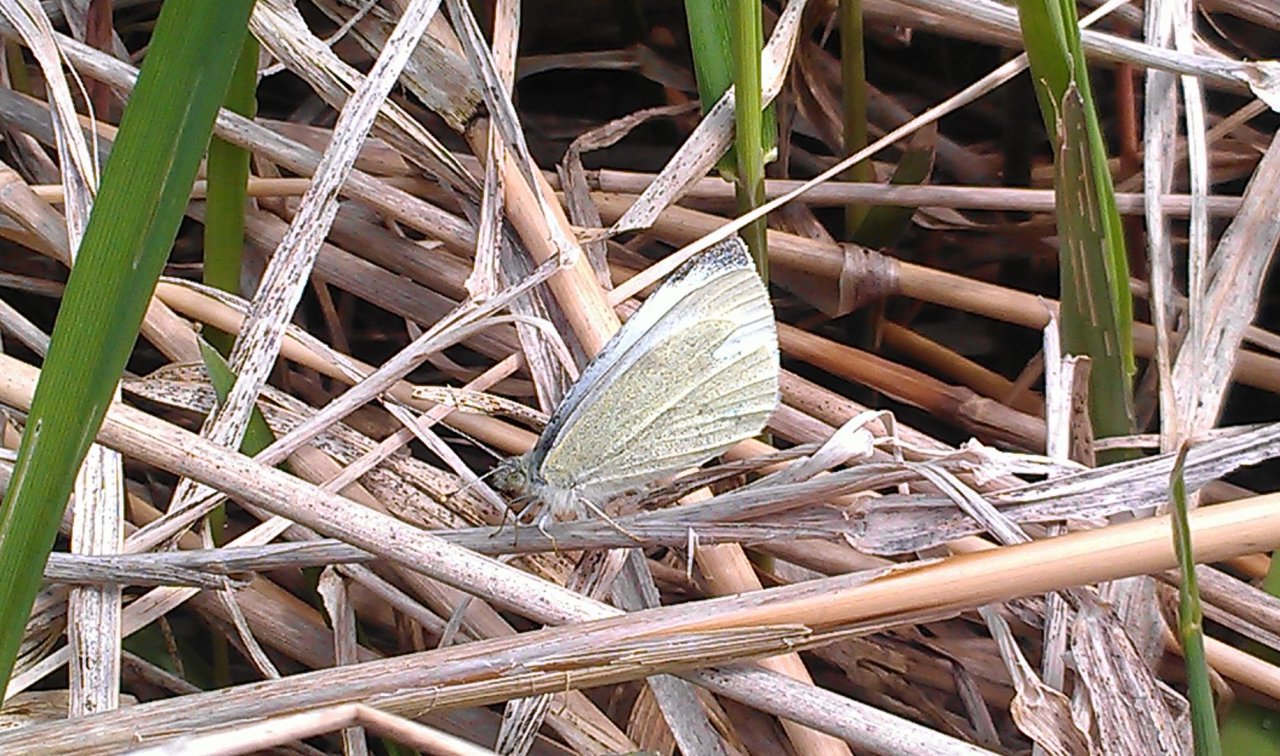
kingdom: Animalia
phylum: Arthropoda
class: Insecta
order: Lepidoptera
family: Pieridae
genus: Pieris
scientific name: Pieris rapae
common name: Cabbage White
